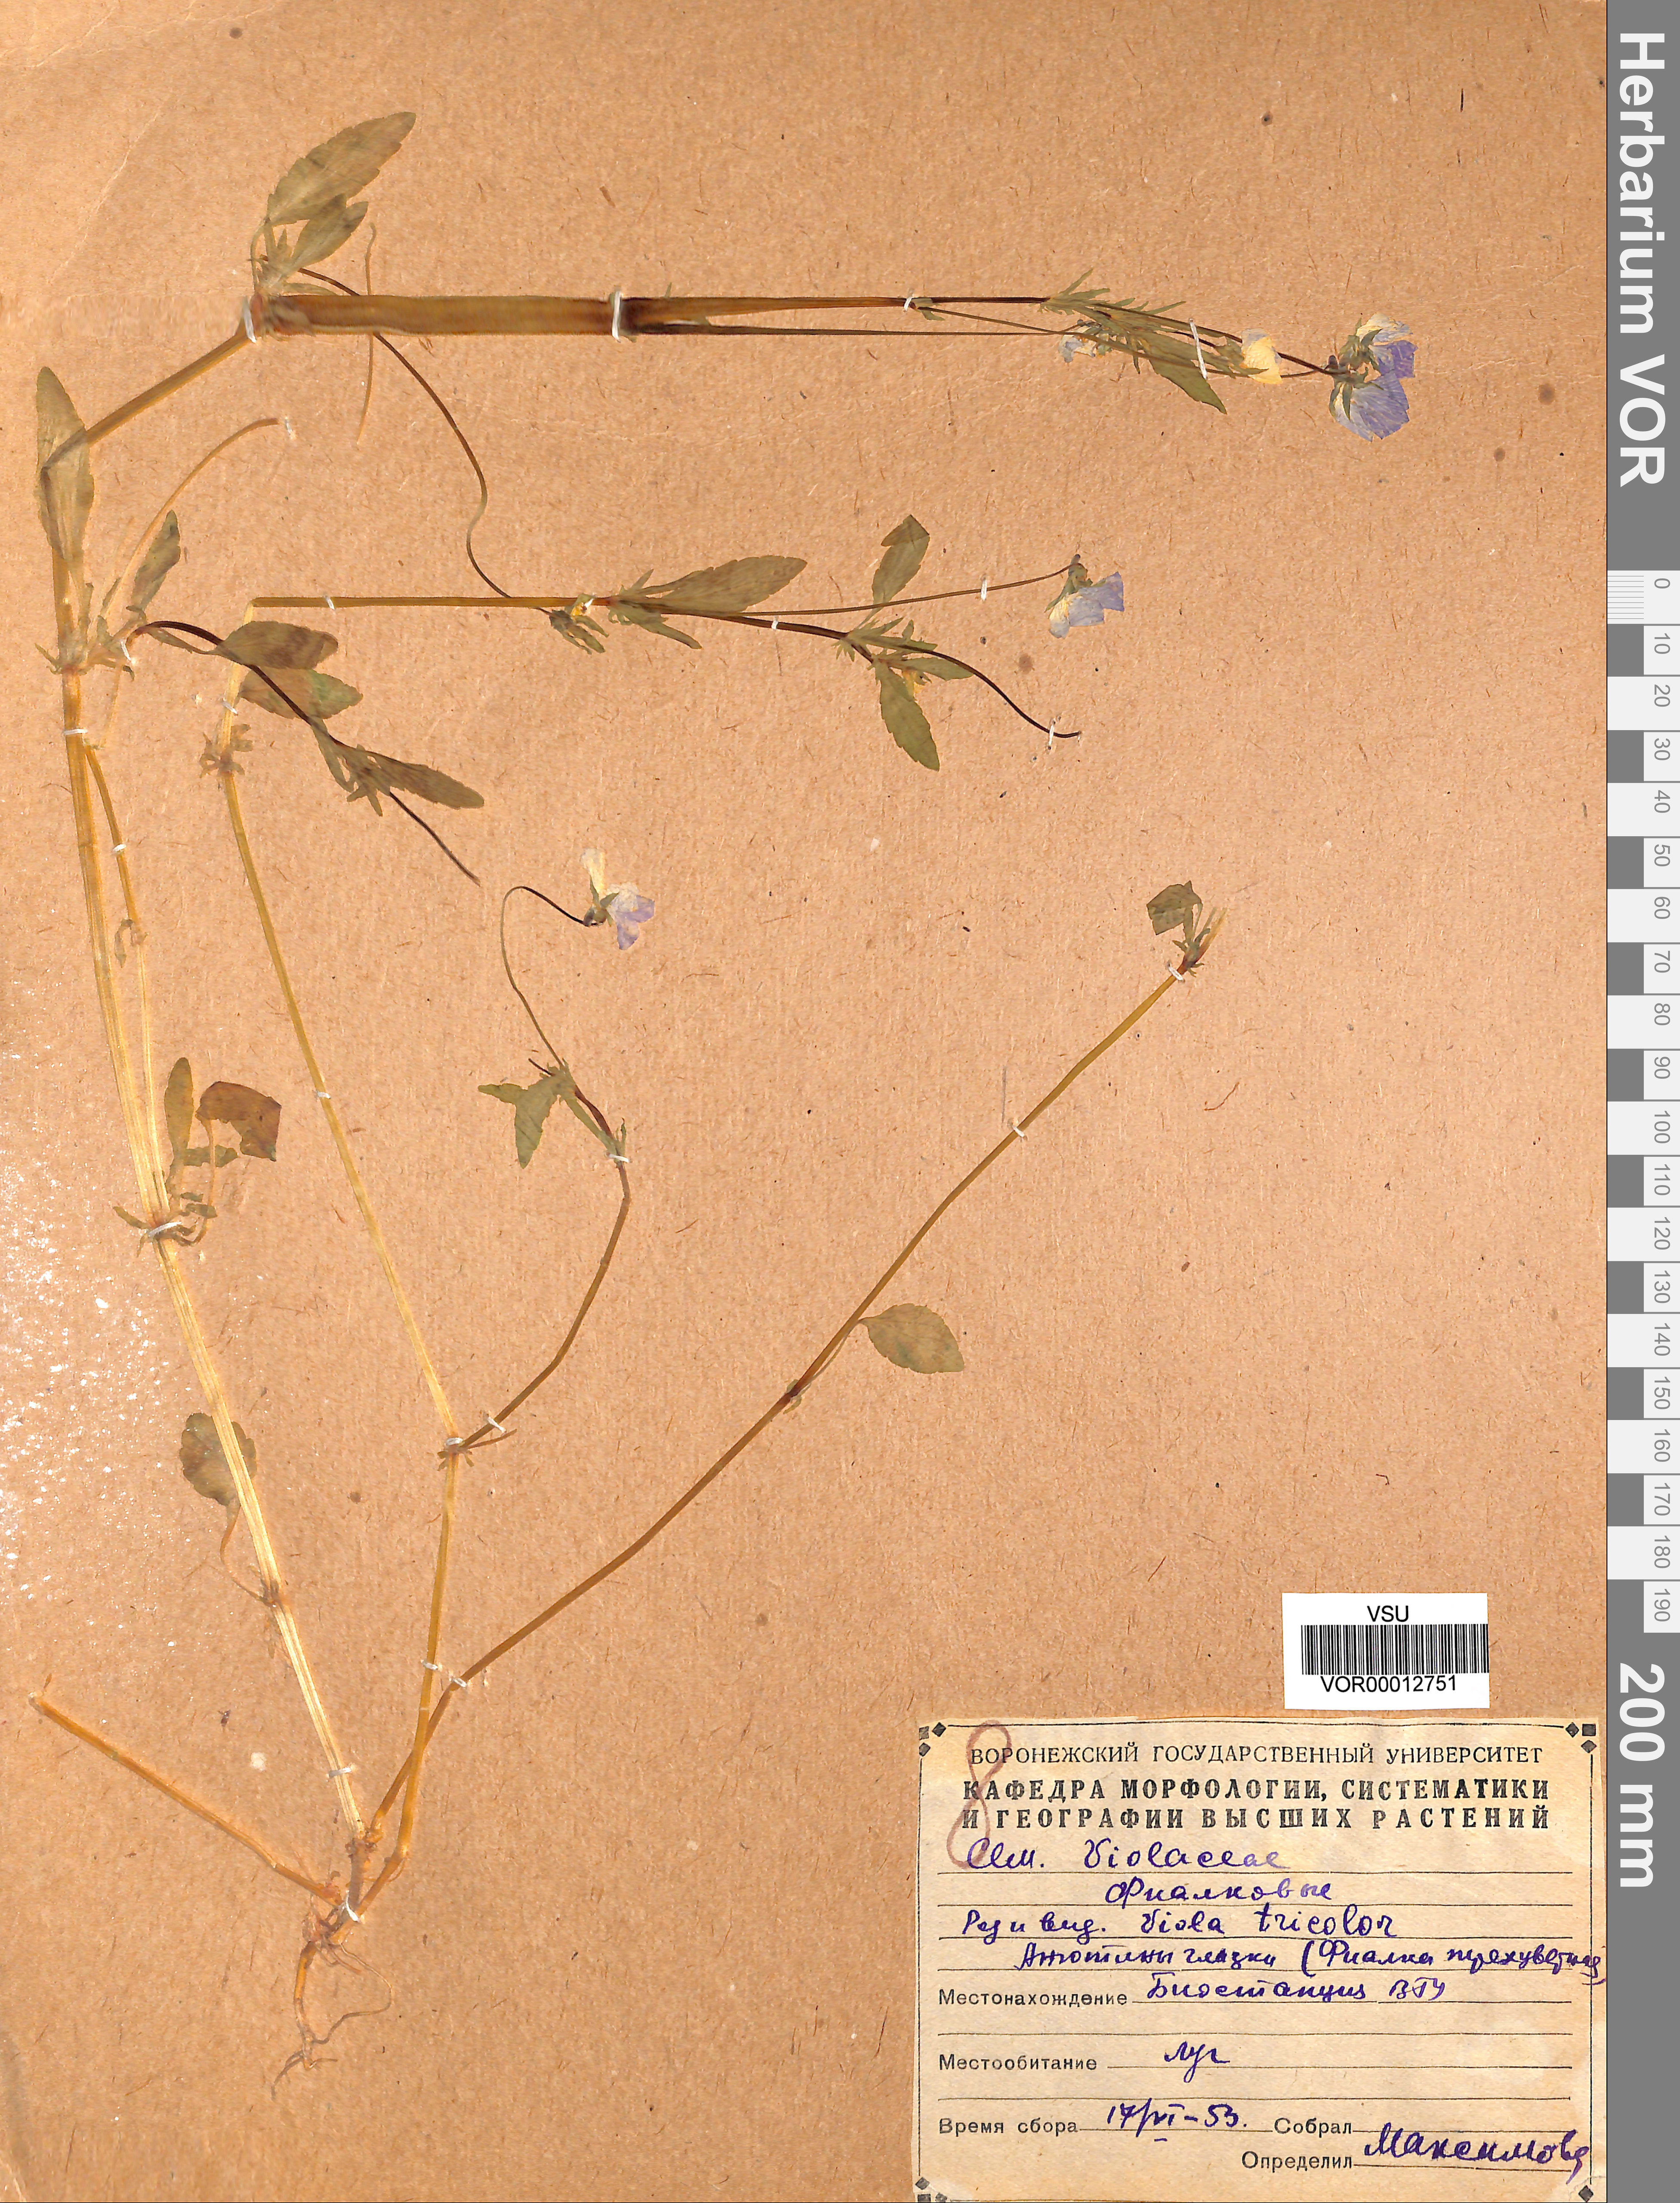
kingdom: Plantae
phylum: Tracheophyta
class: Magnoliopsida
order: Malpighiales
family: Violaceae
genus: Viola
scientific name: Viola tricolor
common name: Pansy
